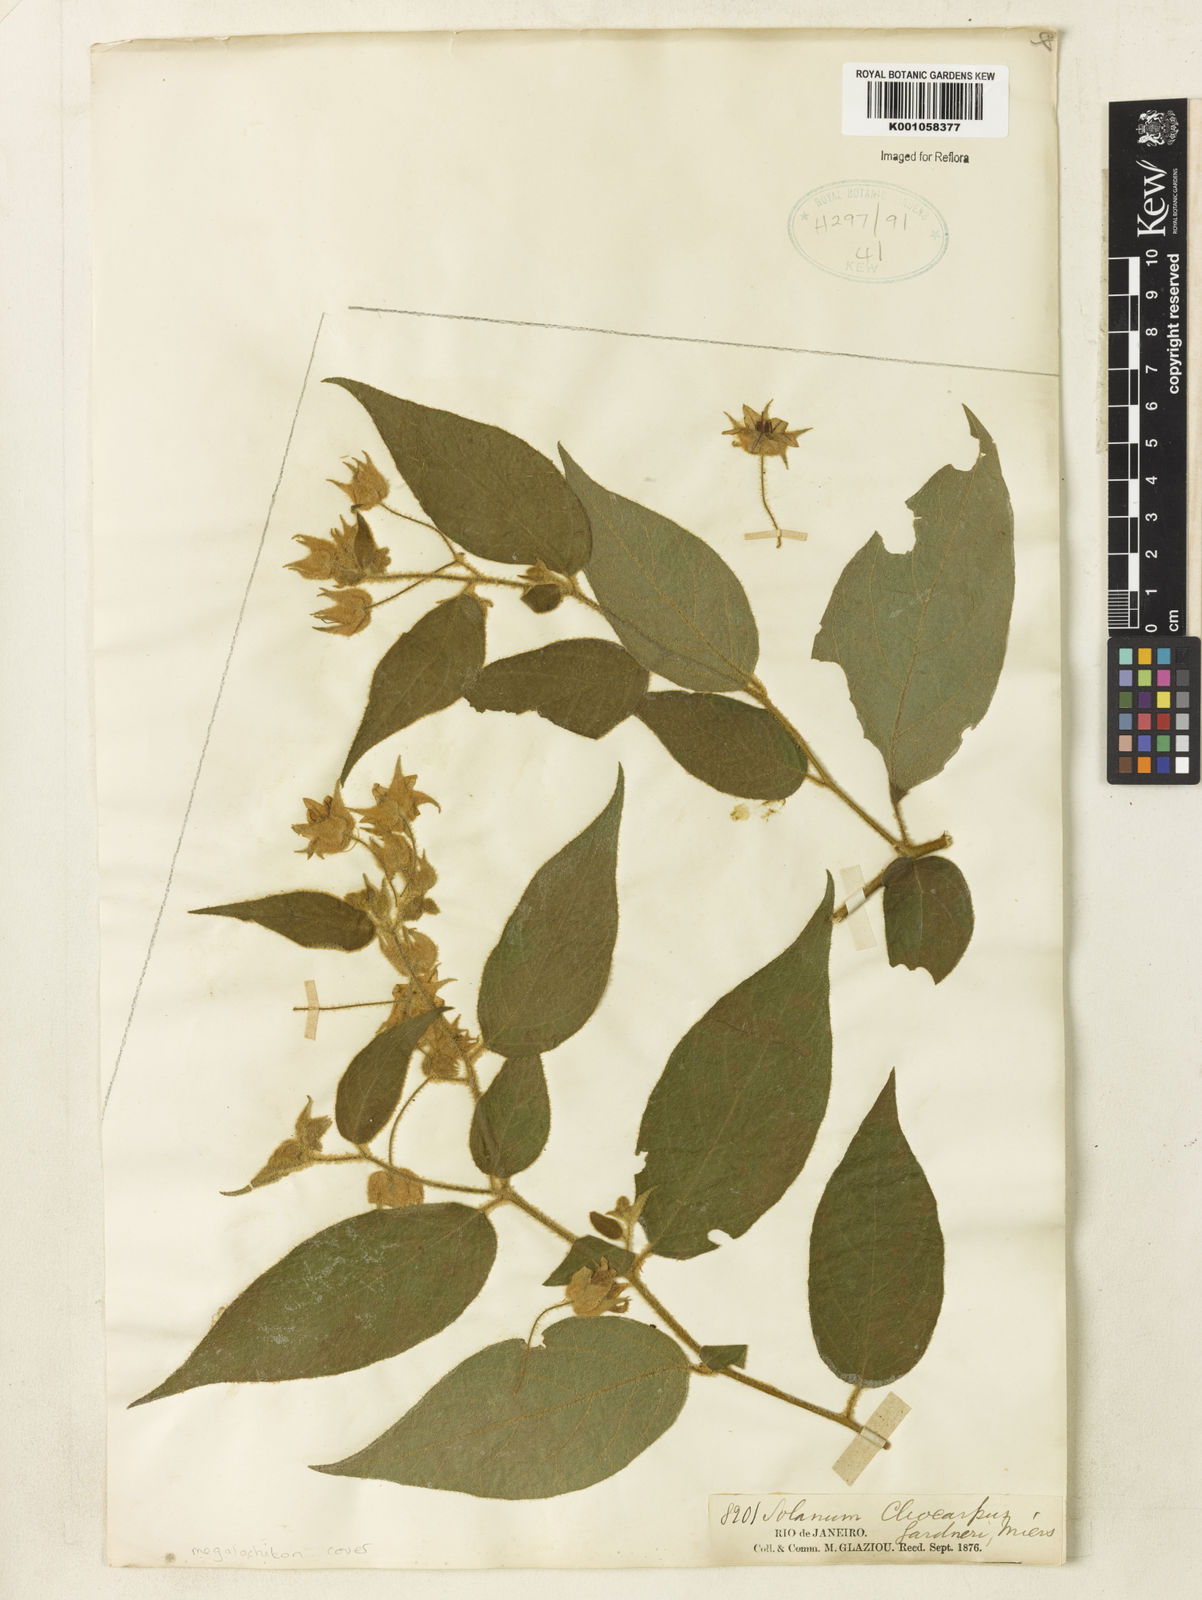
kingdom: Plantae
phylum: Tracheophyta
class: Magnoliopsida
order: Solanales
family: Solanaceae
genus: Solanum
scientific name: Solanum didymum
